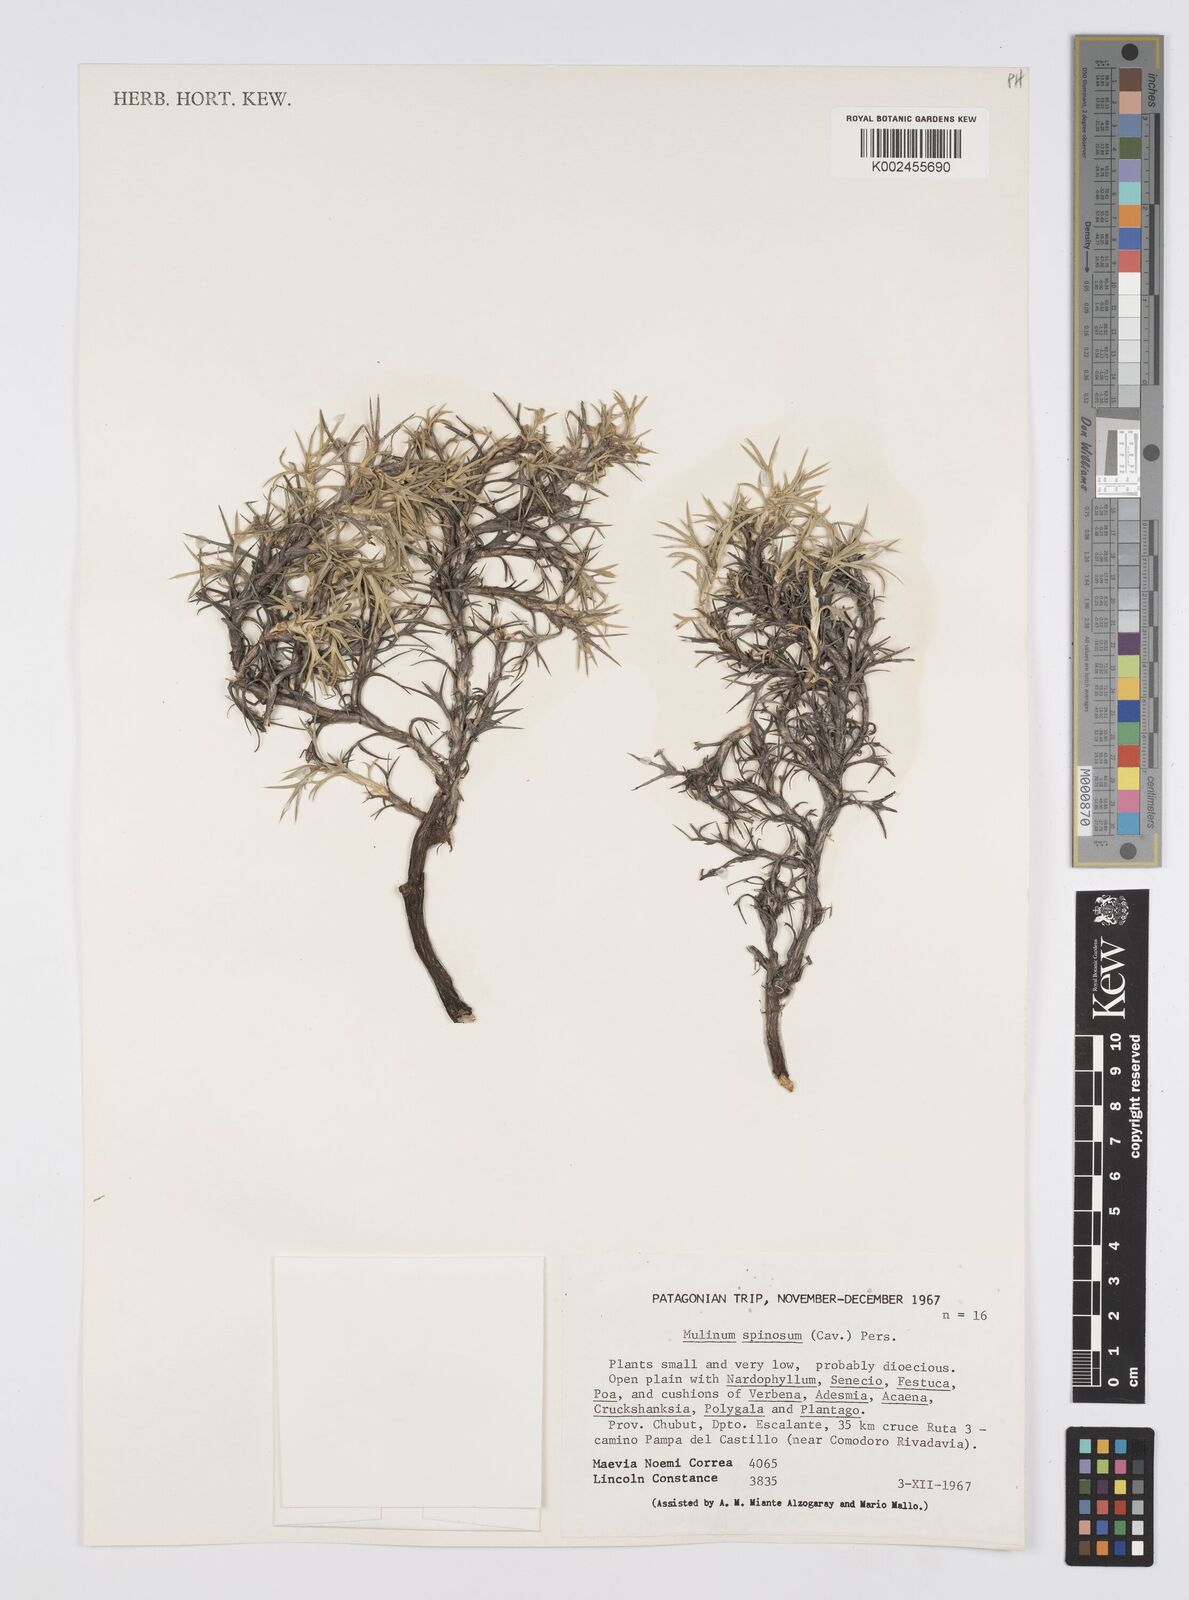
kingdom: Plantae
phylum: Tracheophyta
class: Magnoliopsida
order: Apiales
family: Apiaceae
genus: Azorella
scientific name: Azorella prolifera
